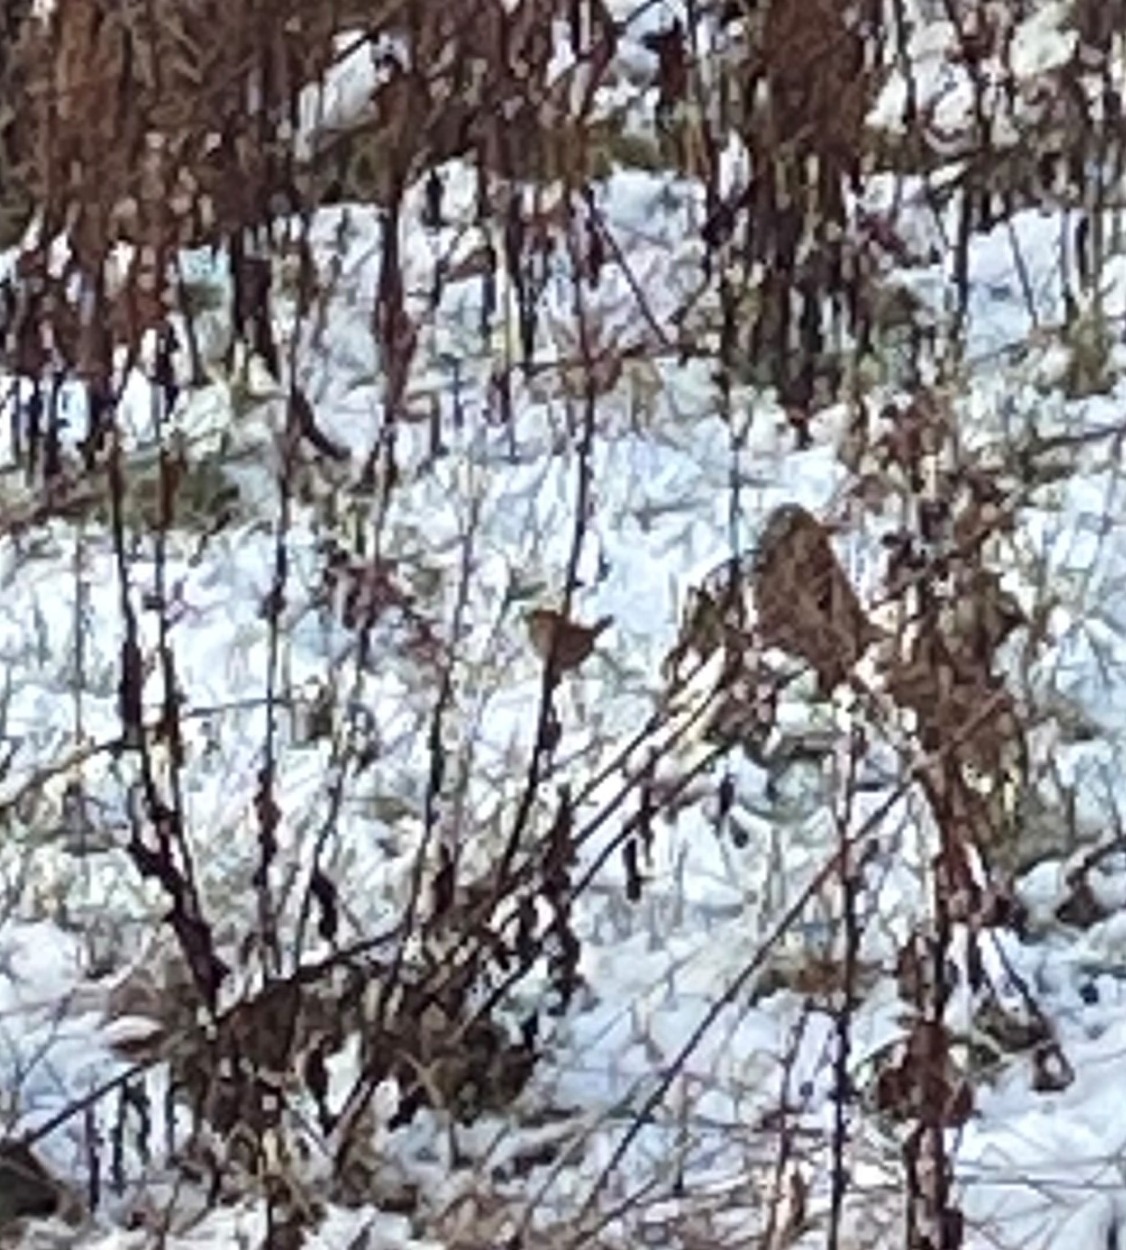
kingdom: Animalia
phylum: Chordata
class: Aves
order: Passeriformes
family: Troglodytidae
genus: Troglodytes
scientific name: Troglodytes troglodytes
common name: Gærdesmutte
